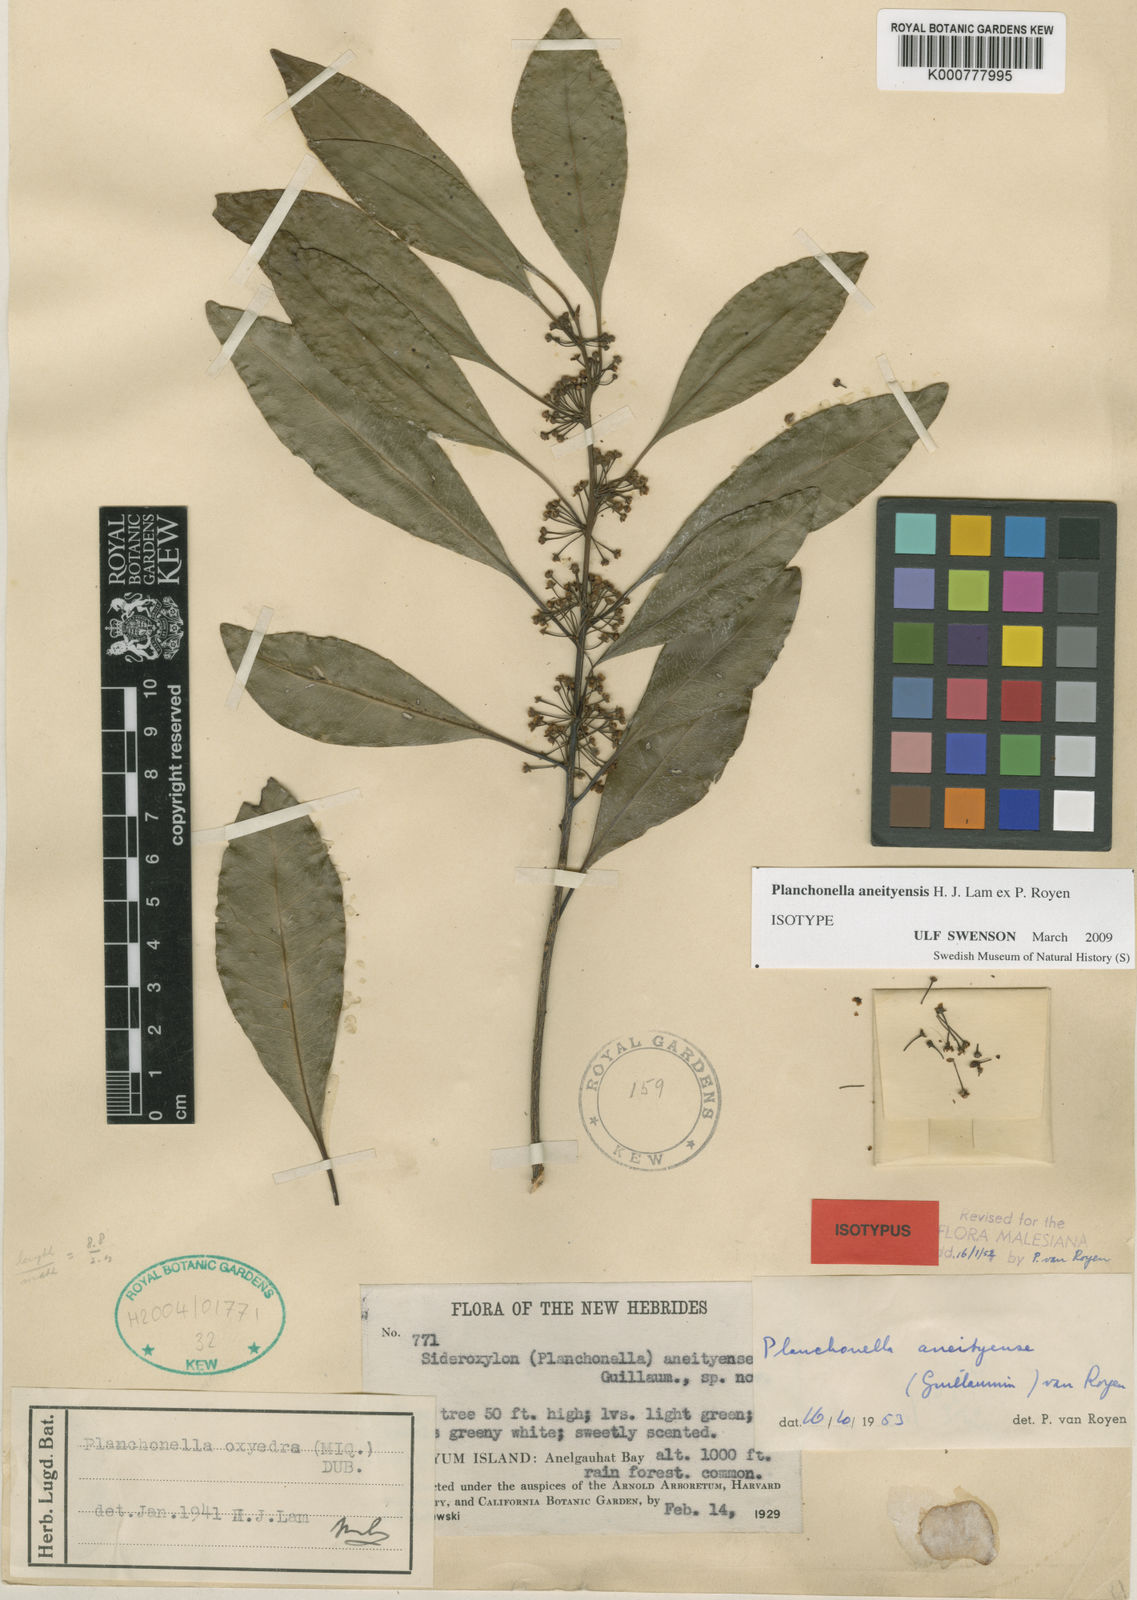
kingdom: Plantae
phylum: Tracheophyta
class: Magnoliopsida
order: Ericales
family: Sapotaceae
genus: Pouteria
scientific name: Pouteria
